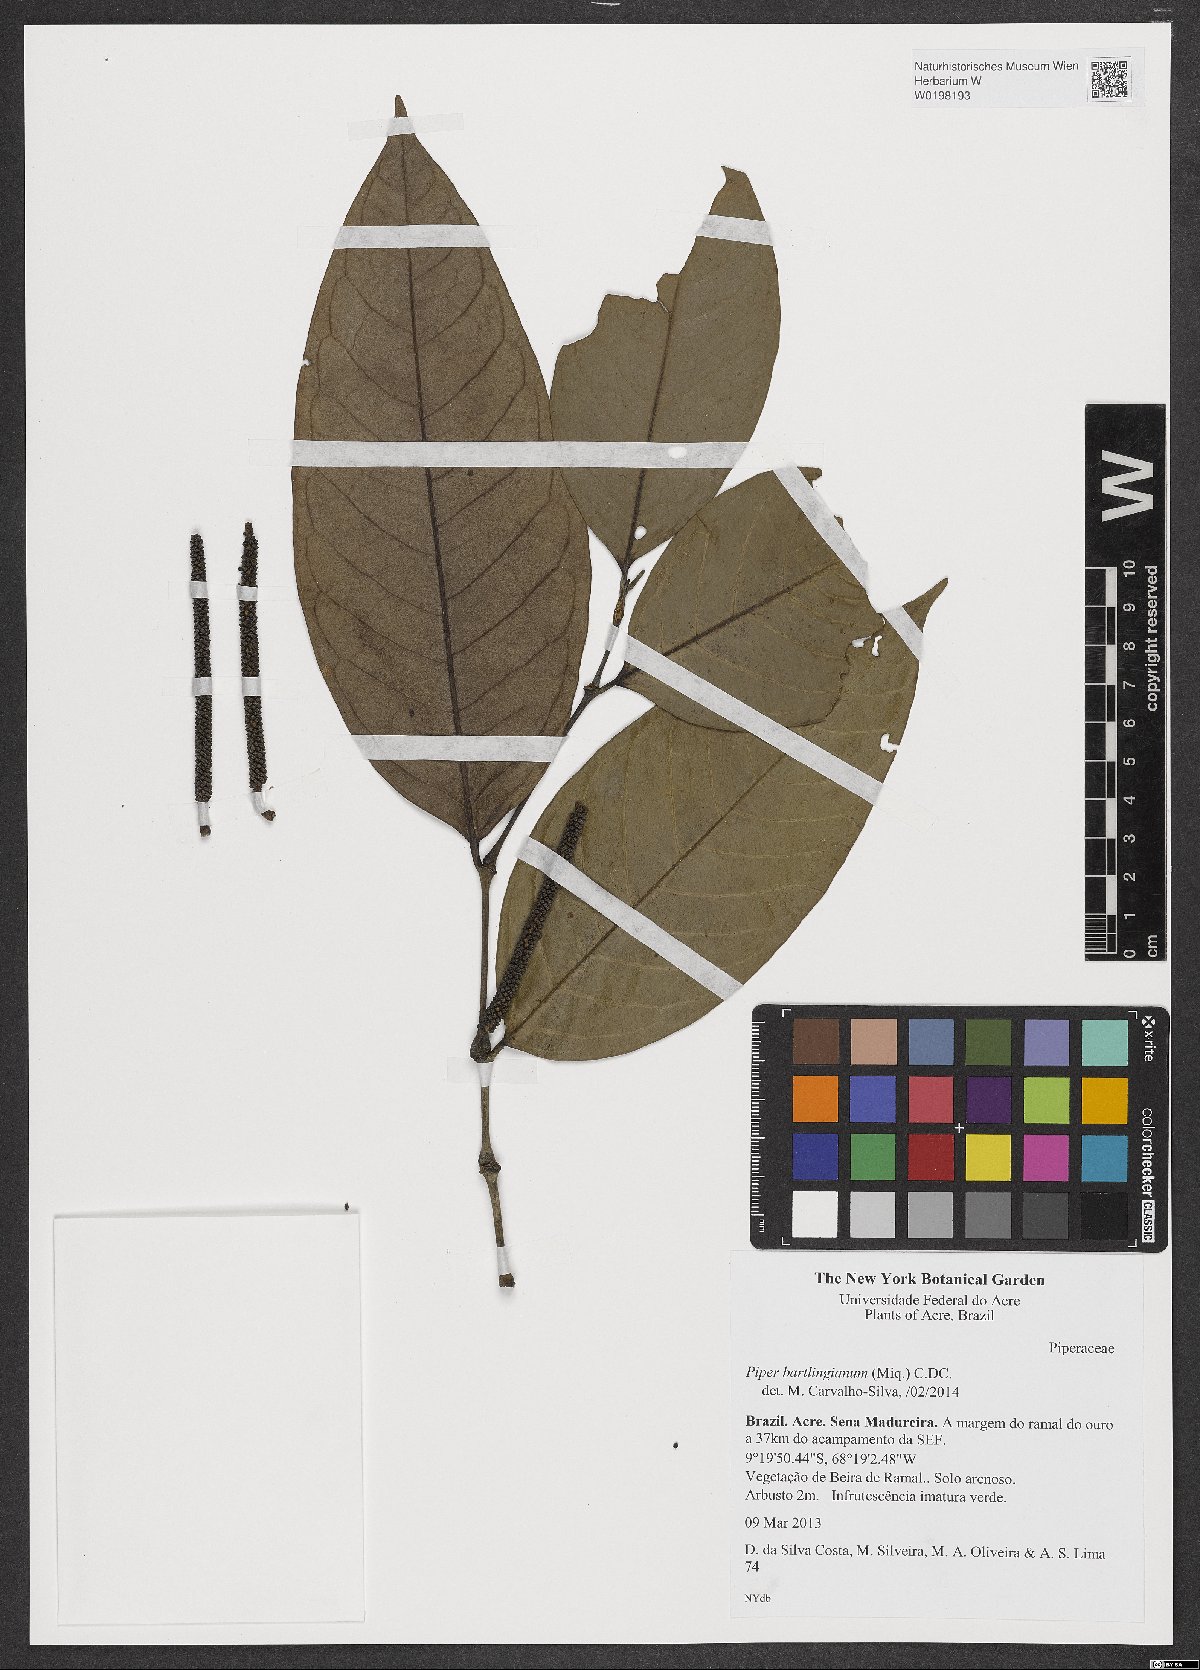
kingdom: Plantae
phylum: Tracheophyta
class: Magnoliopsida
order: Piperales
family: Piperaceae
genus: Piper
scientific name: Piper bartlingianum
